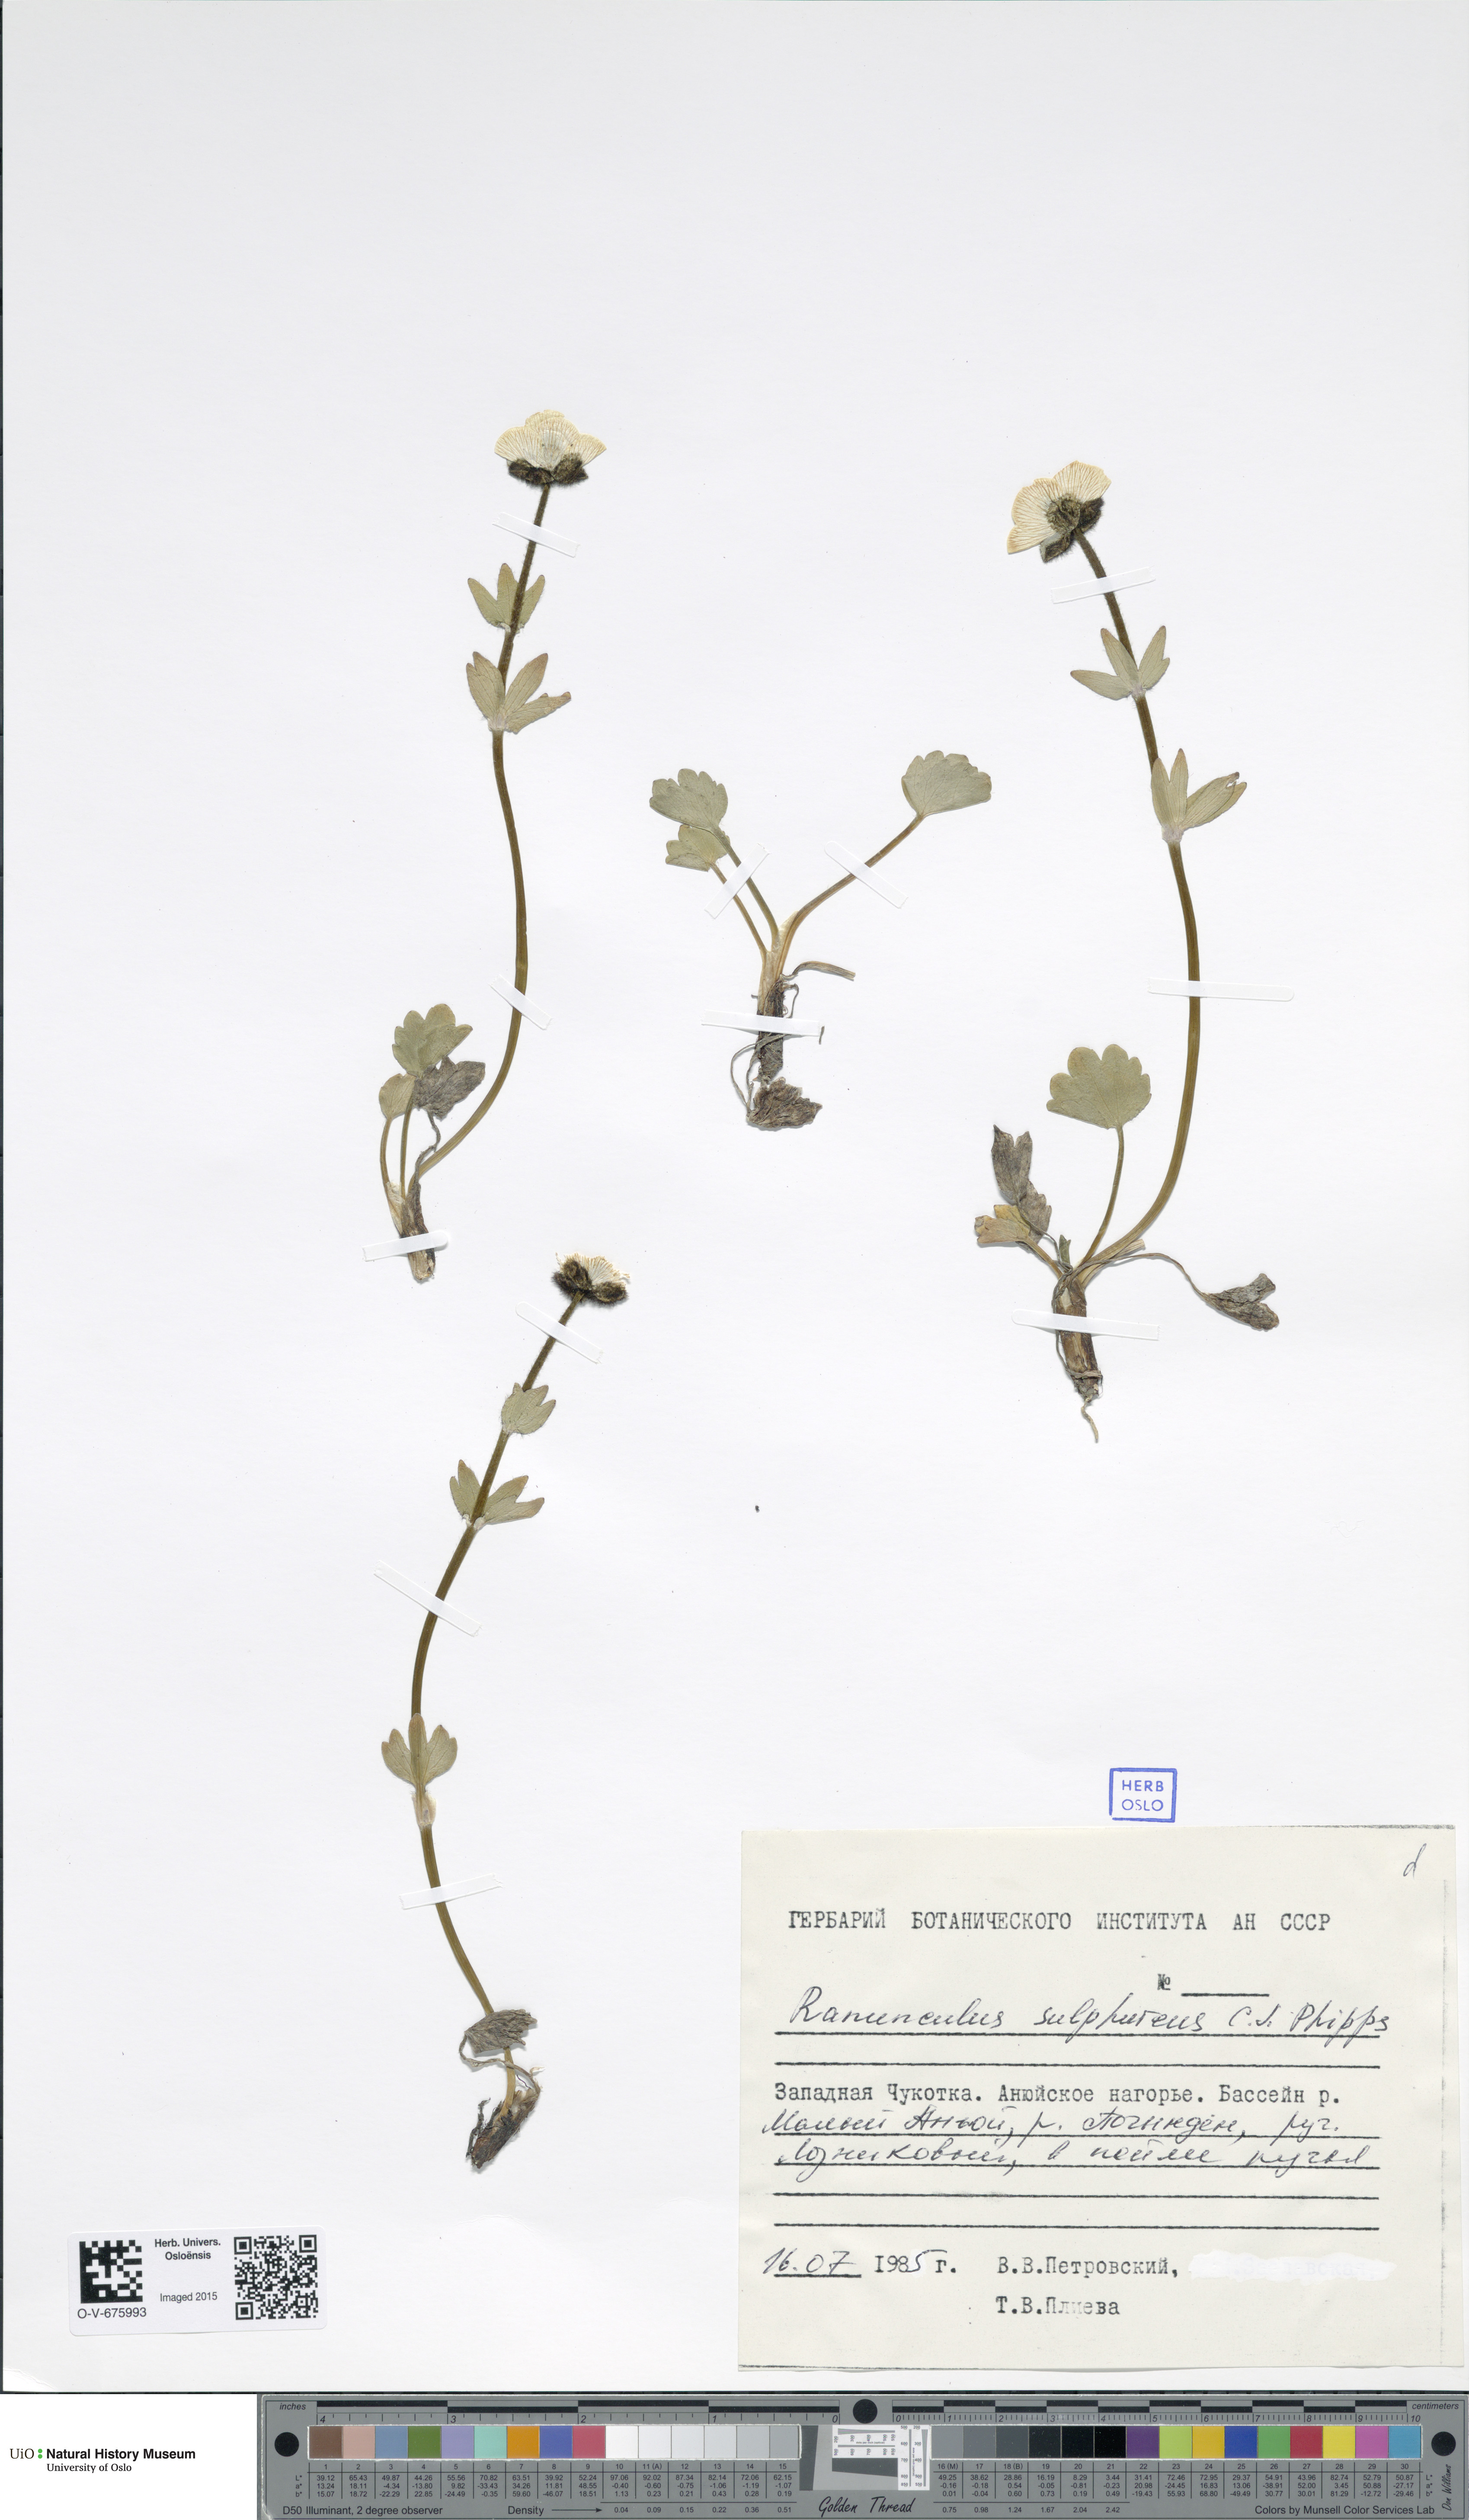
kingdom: Plantae
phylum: Tracheophyta
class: Magnoliopsida
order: Ranunculales
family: Ranunculaceae
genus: Ranunculus
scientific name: Ranunculus sulphureus
